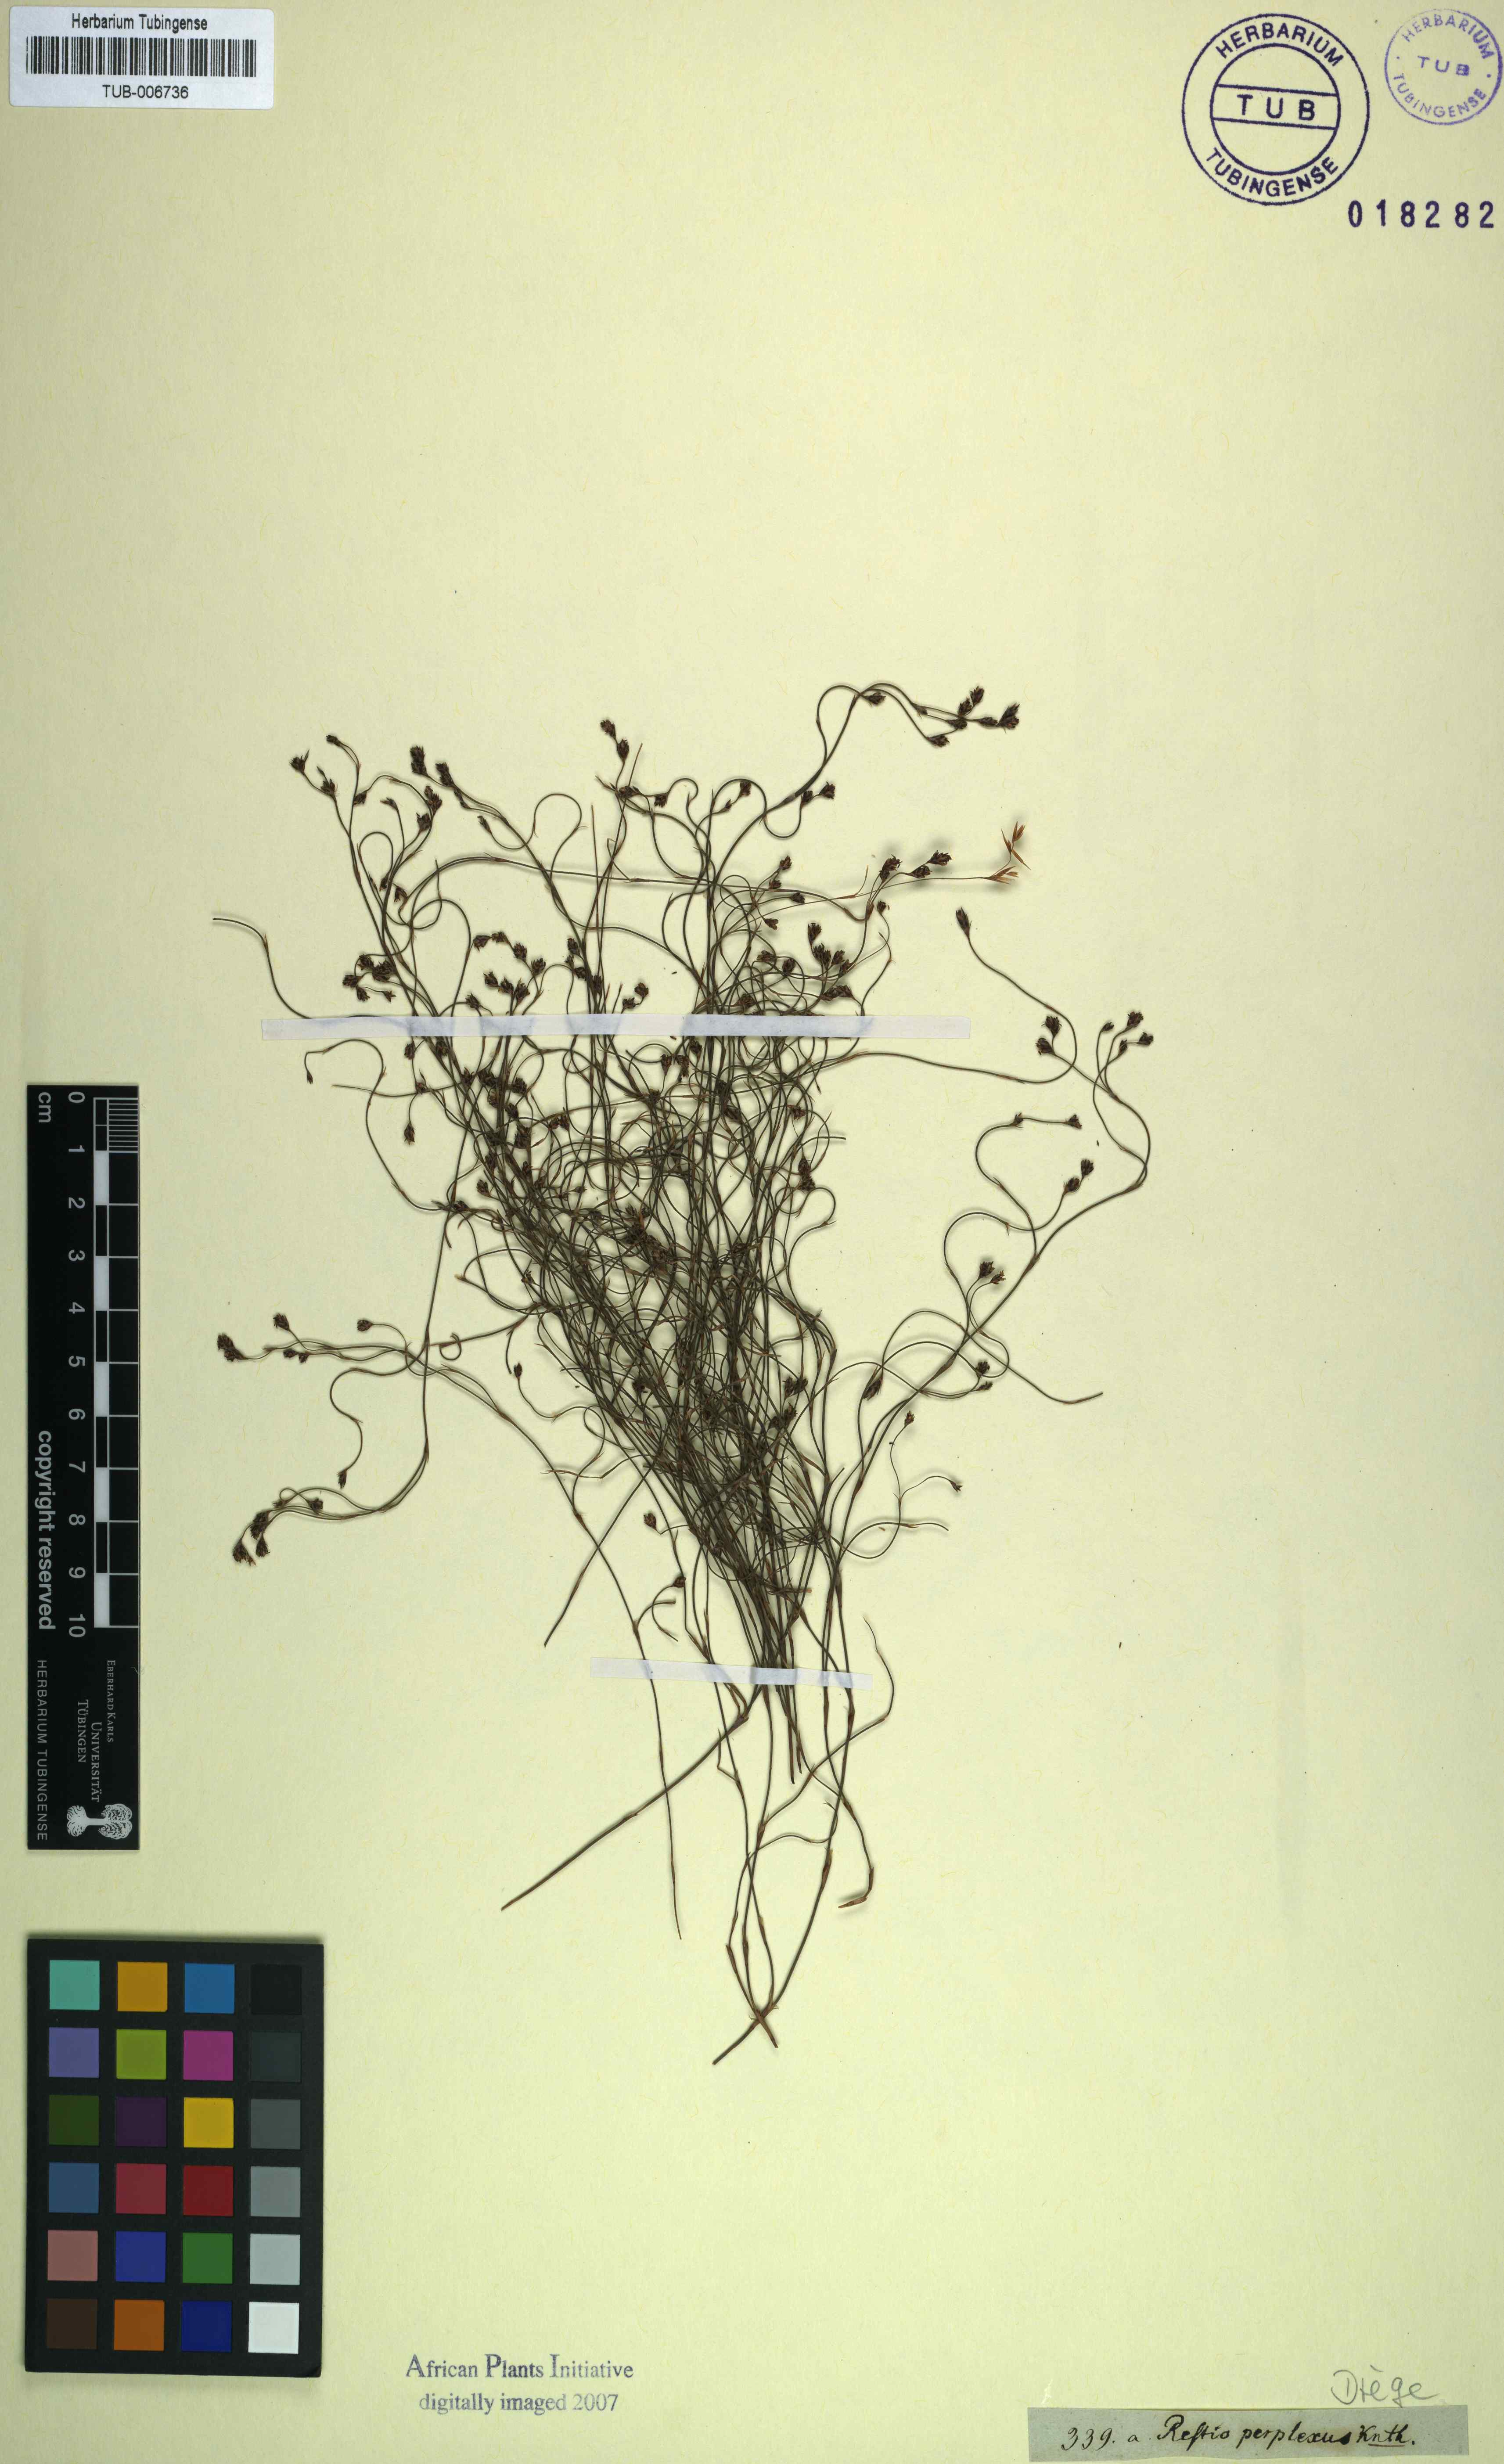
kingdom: Plantae
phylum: Tracheophyta
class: Liliopsida
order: Poales
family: Restionaceae
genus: Restio
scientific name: Restio perplexus
